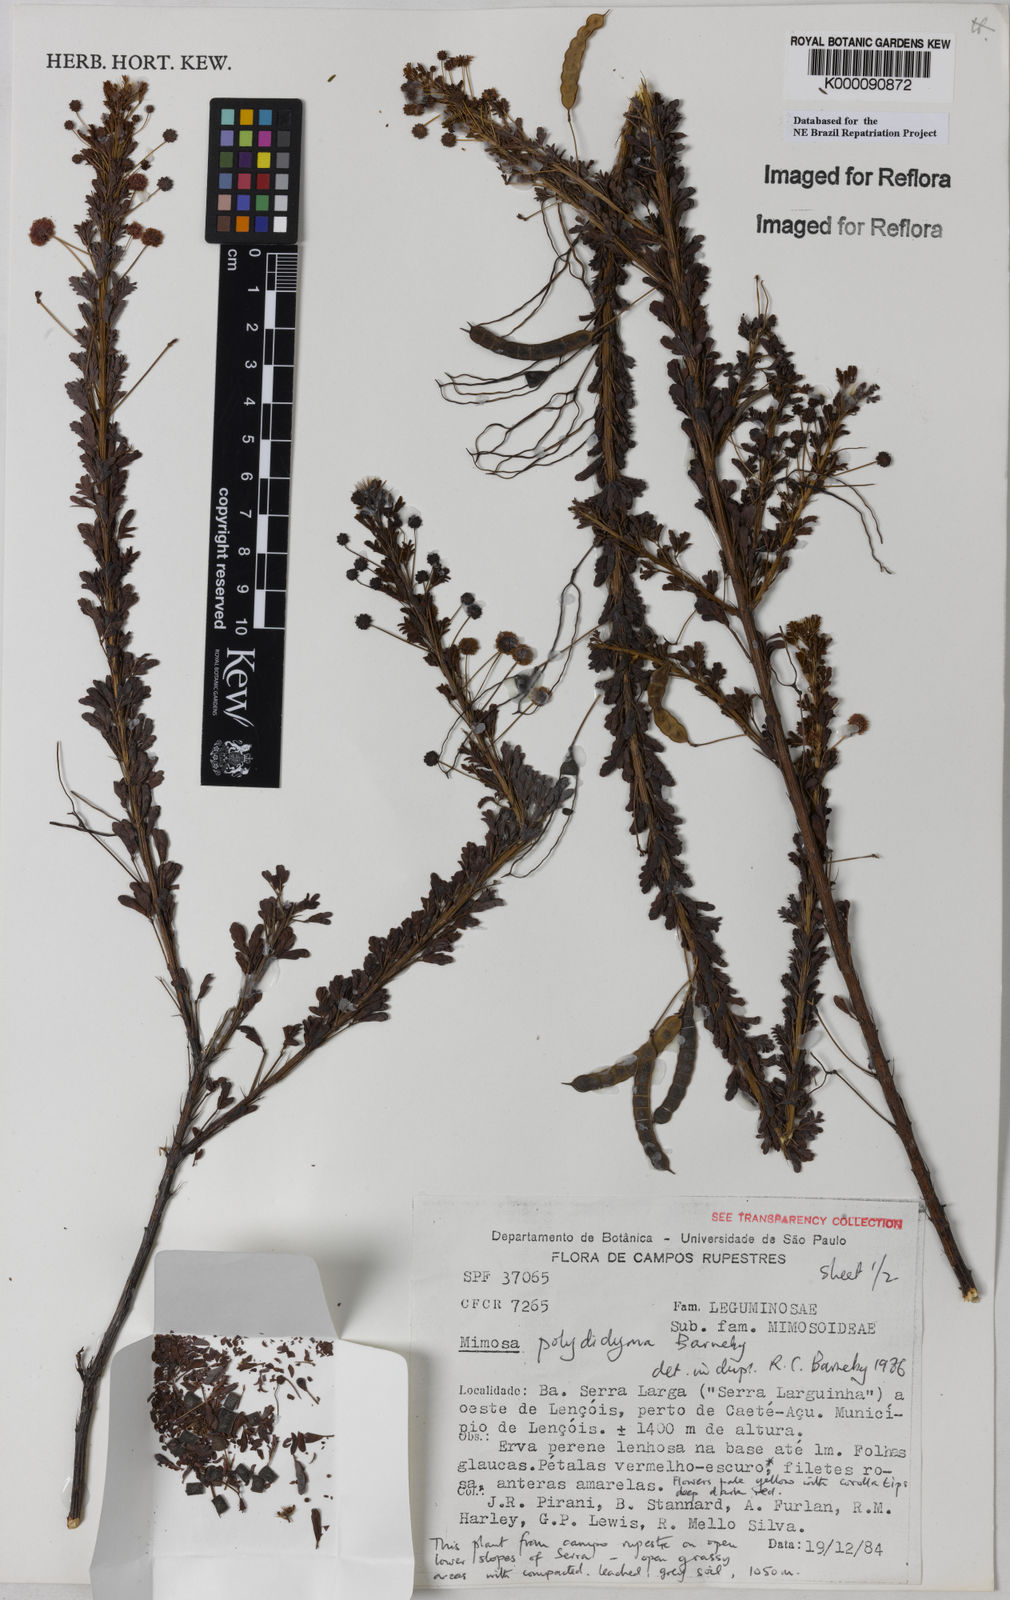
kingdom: Plantae
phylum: Tracheophyta
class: Magnoliopsida
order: Fabales
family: Fabaceae
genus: Mimosa
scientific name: Mimosa polydidyma
